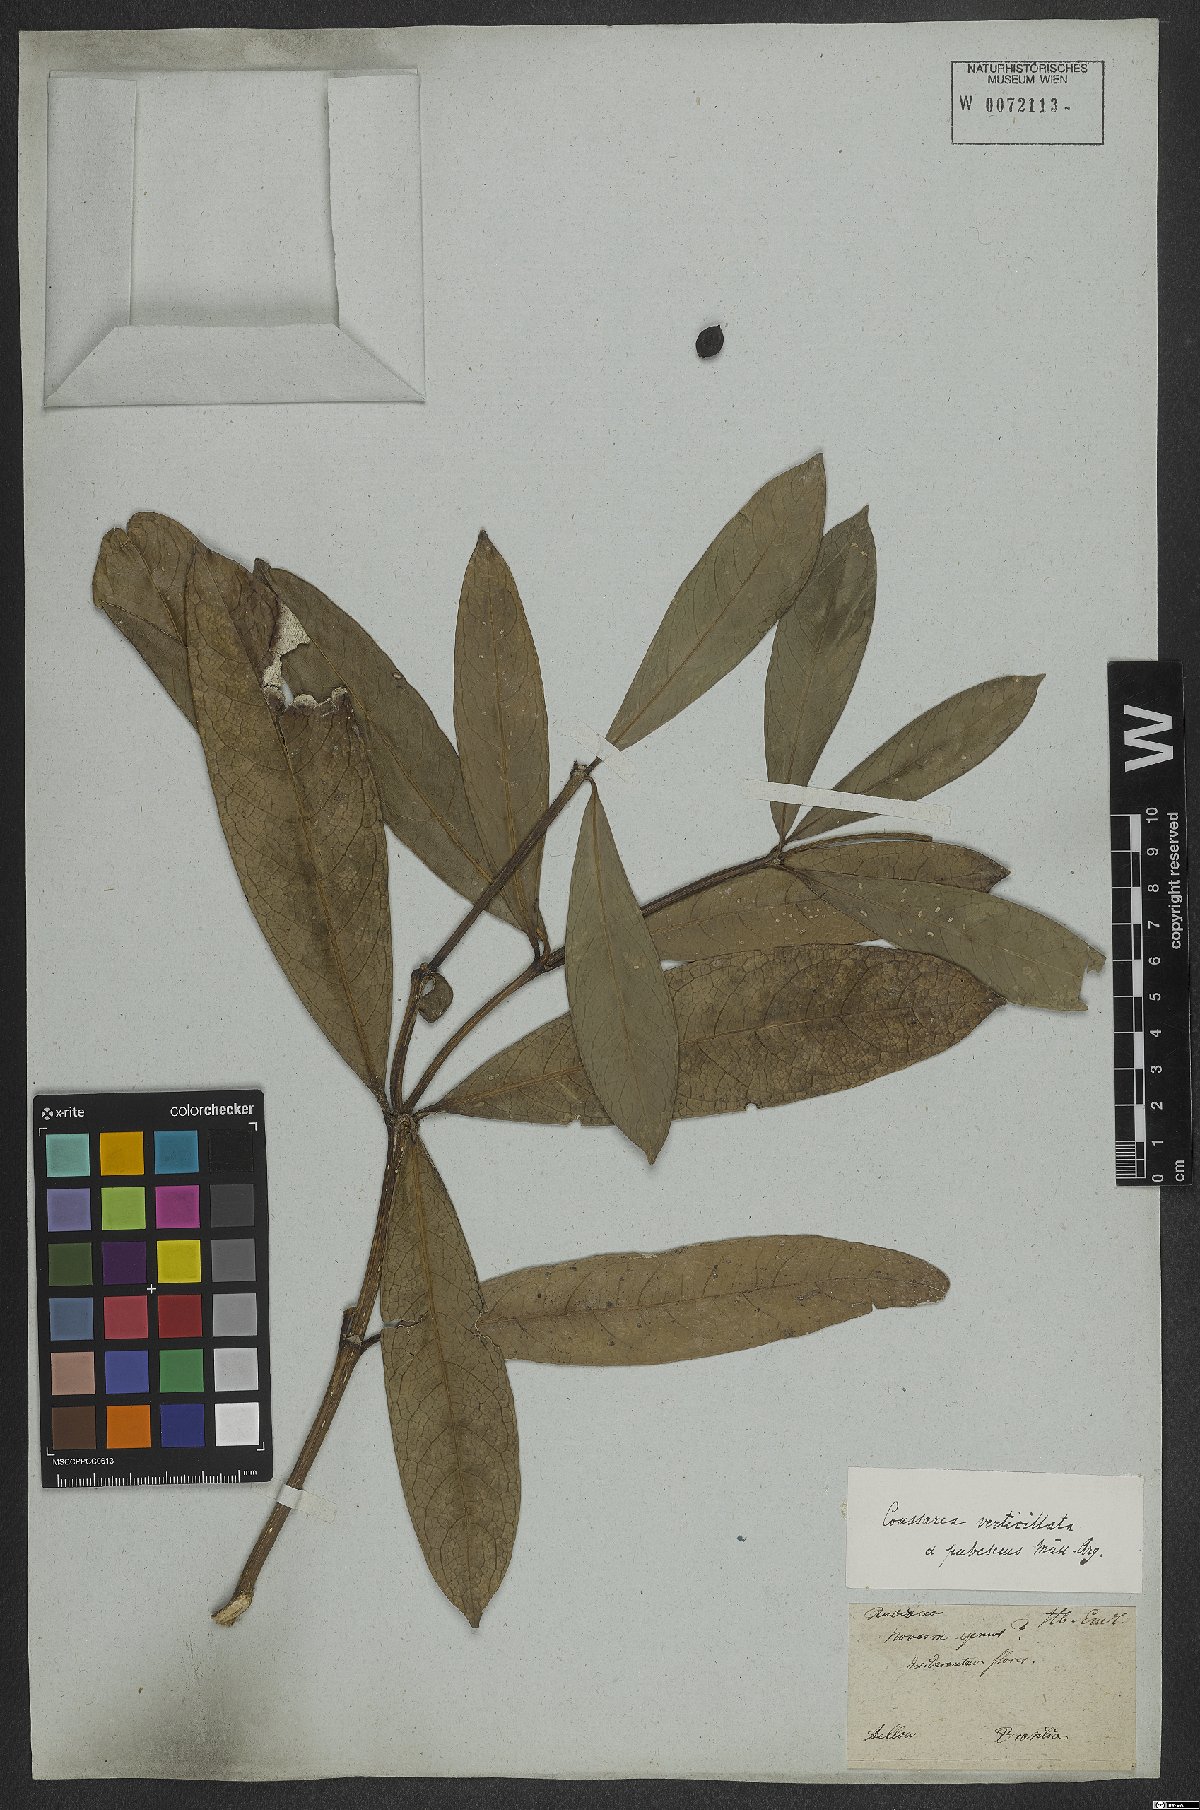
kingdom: Plantae
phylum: Tracheophyta
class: Magnoliopsida
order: Gentianales
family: Rubiaceae
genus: Coussarea
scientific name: Coussarea verticillata
